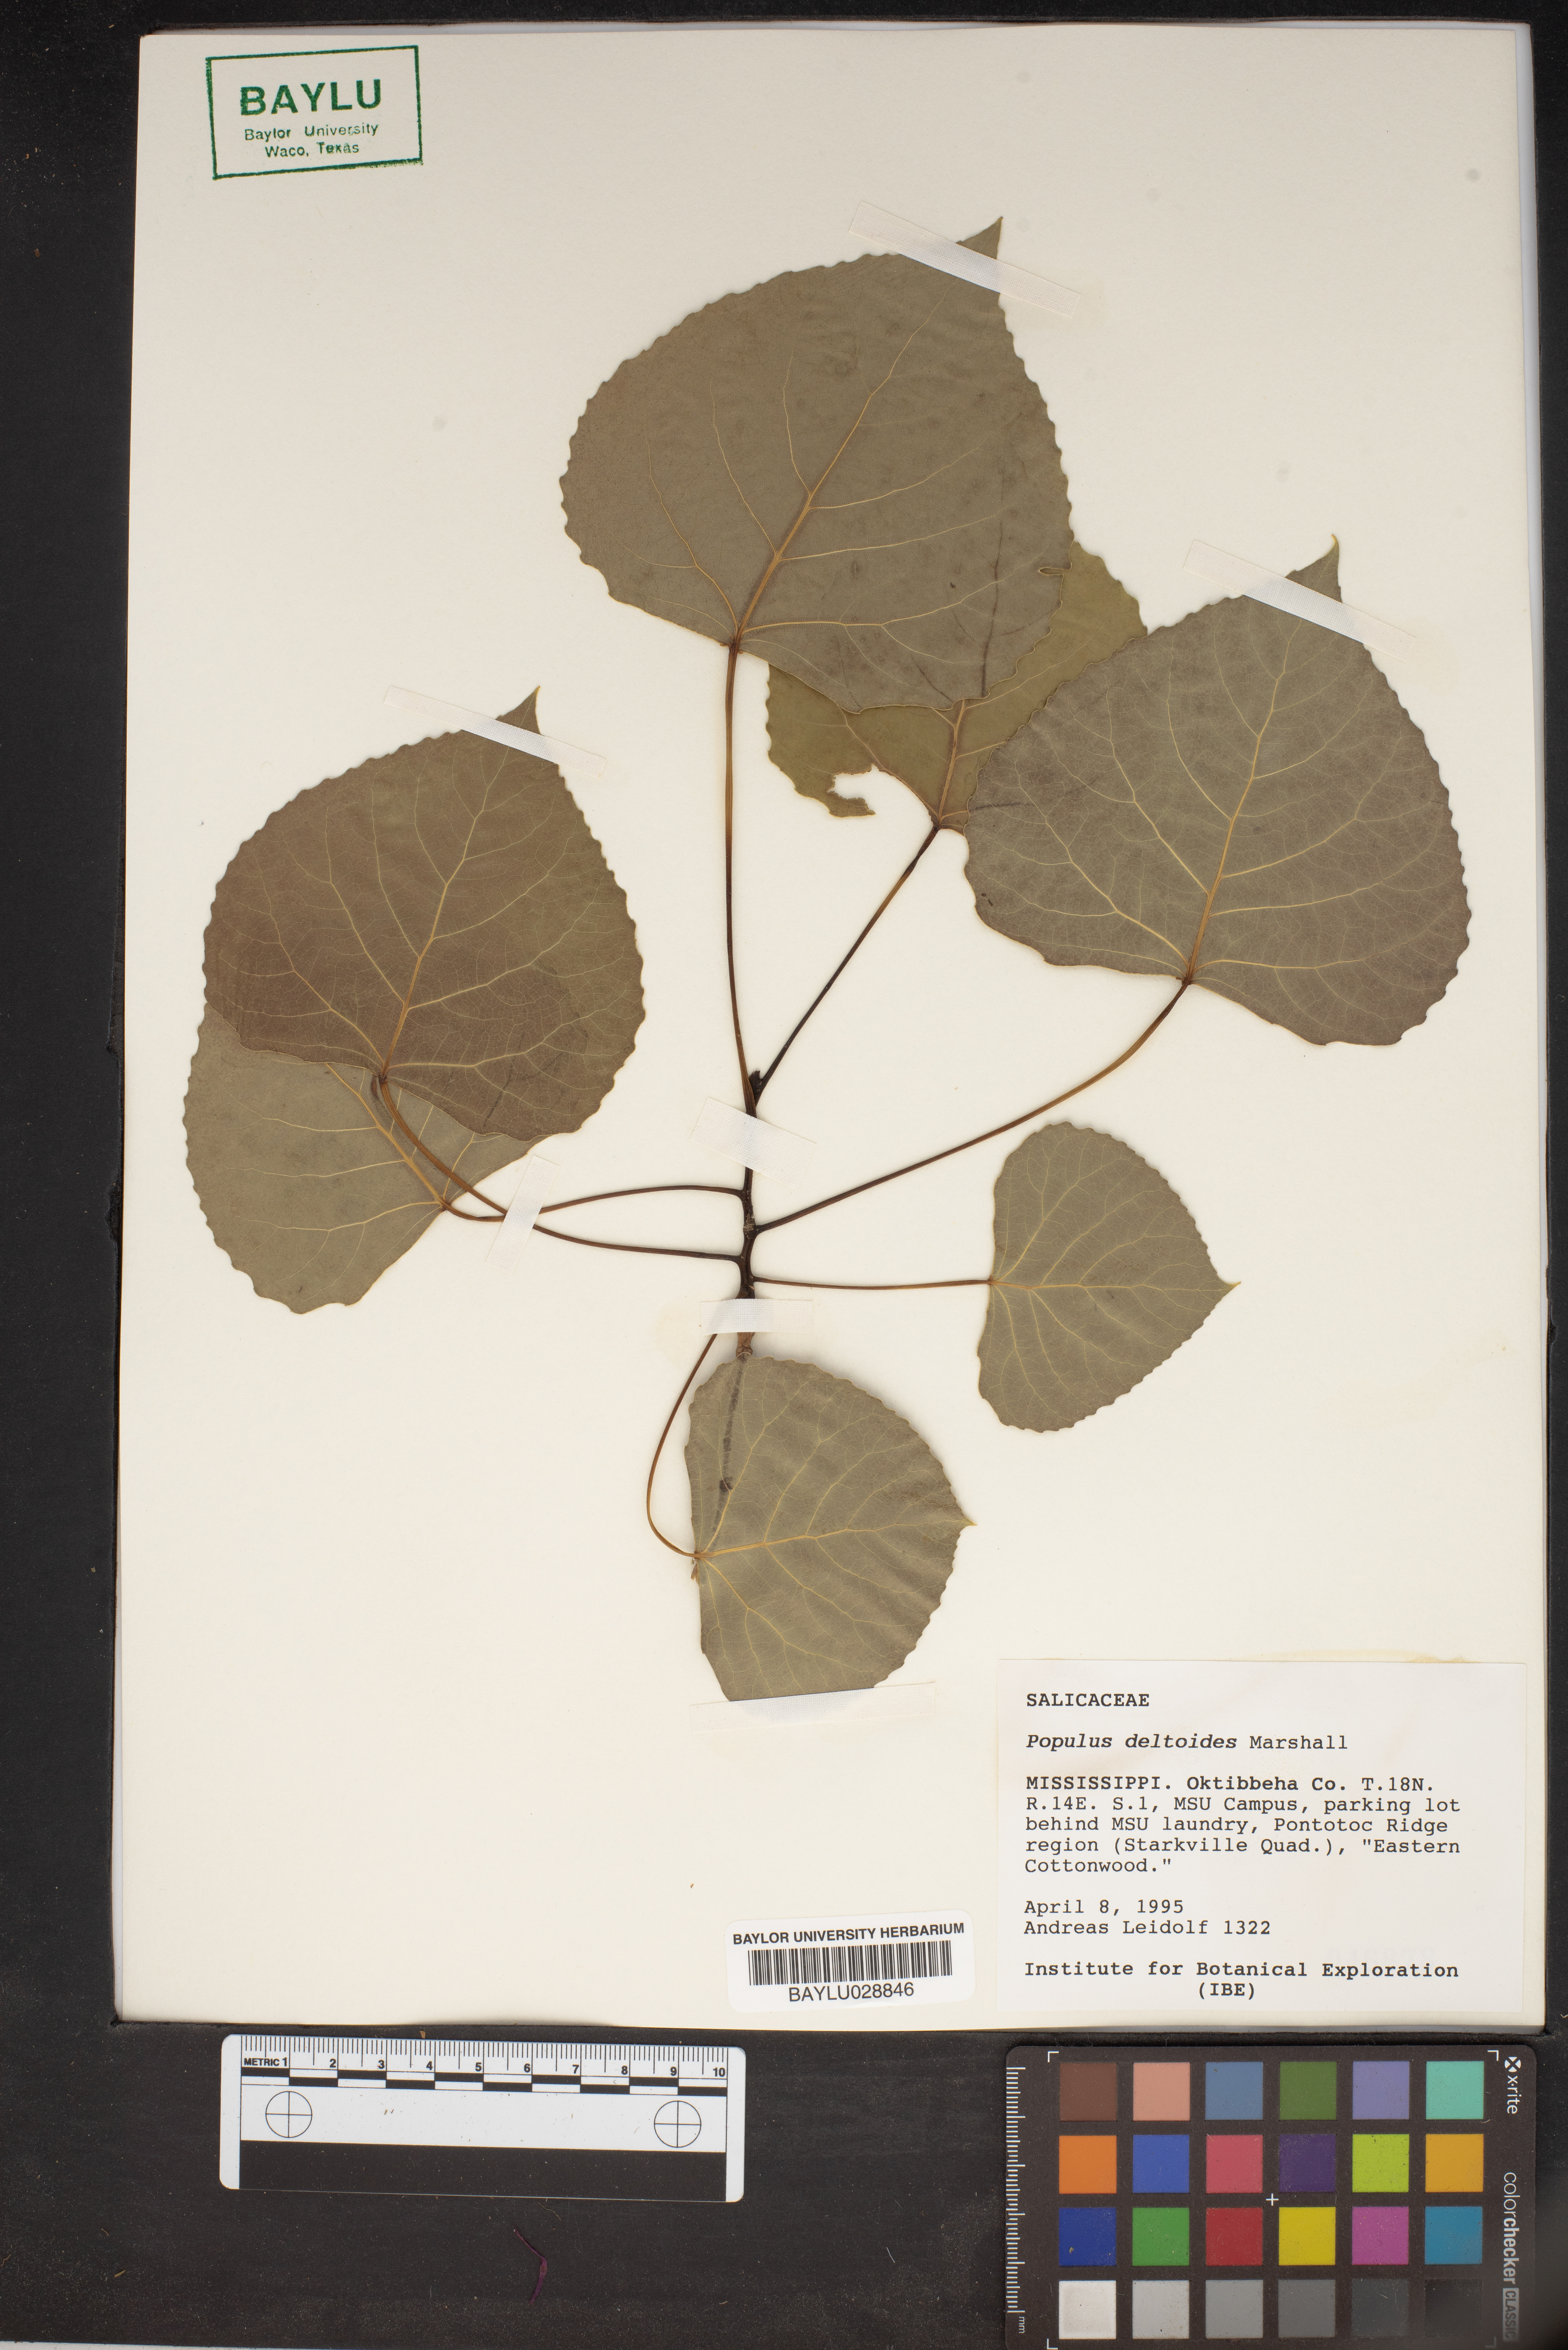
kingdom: Plantae
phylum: Tracheophyta
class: Magnoliopsida
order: Malpighiales
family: Salicaceae
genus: Populus
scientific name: Populus deltoides
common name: Eastern cottonwood
